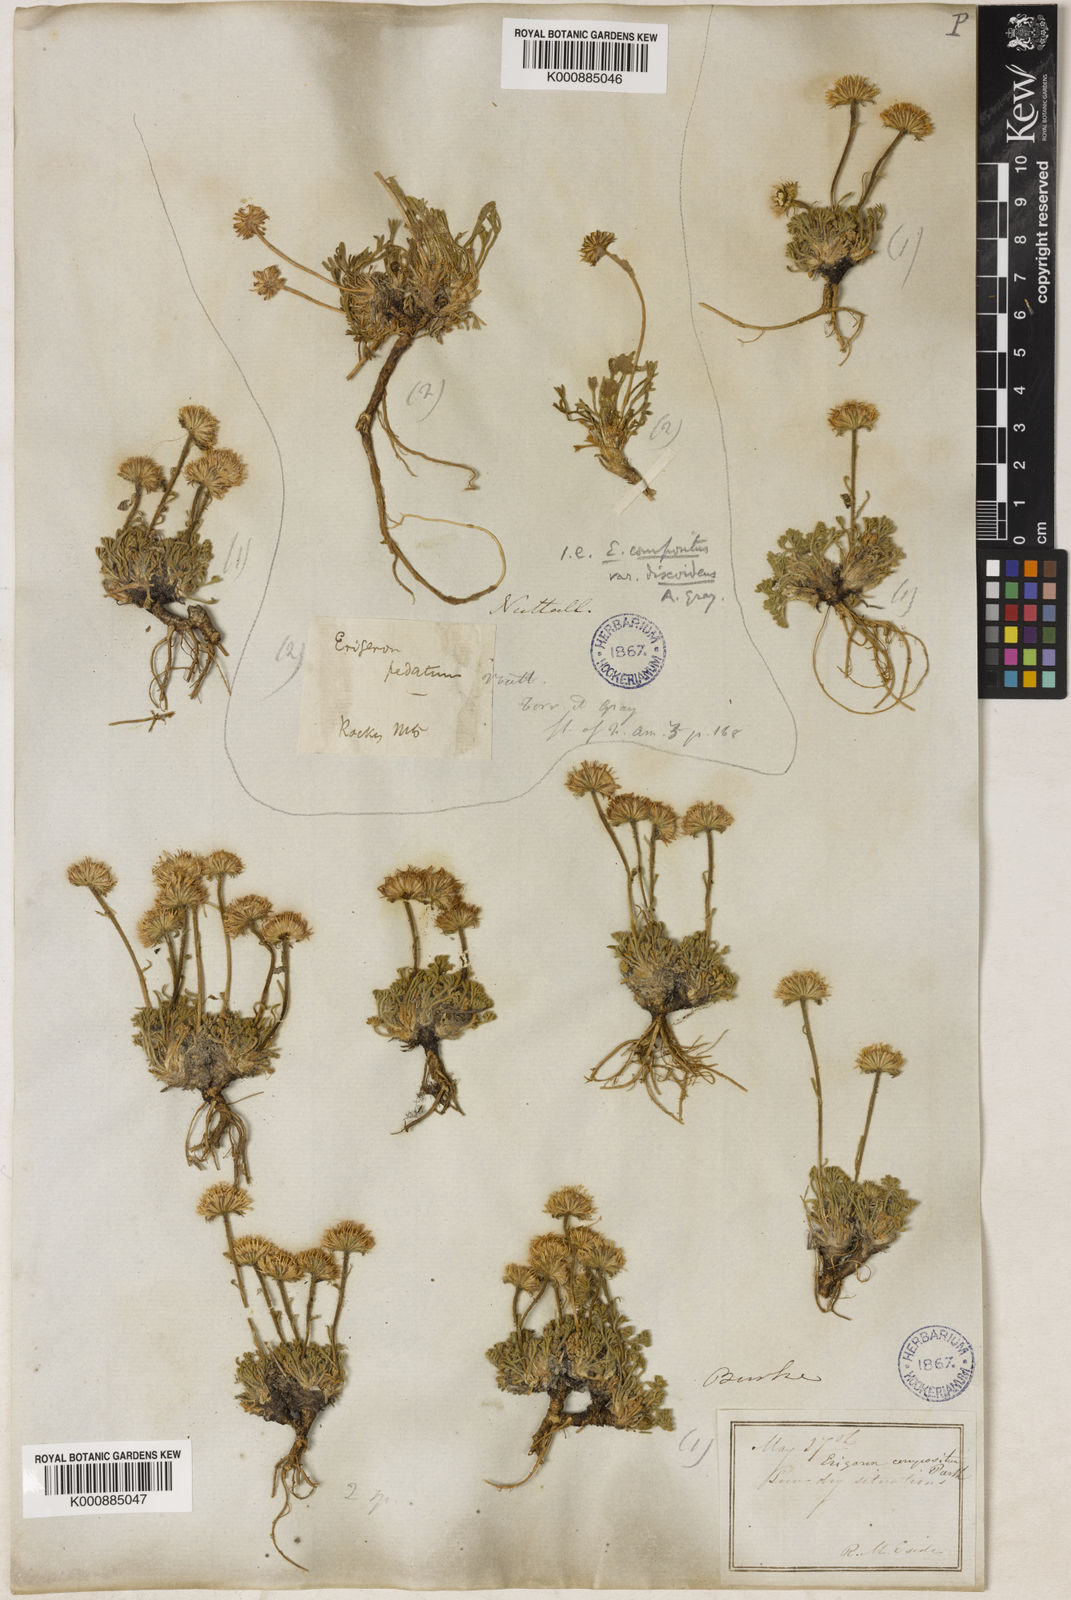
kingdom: Plantae
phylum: Tracheophyta
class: Magnoliopsida
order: Asterales
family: Asteraceae
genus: Erigeron
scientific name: Erigeron compositus
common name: Dwarf mountain fleabane
